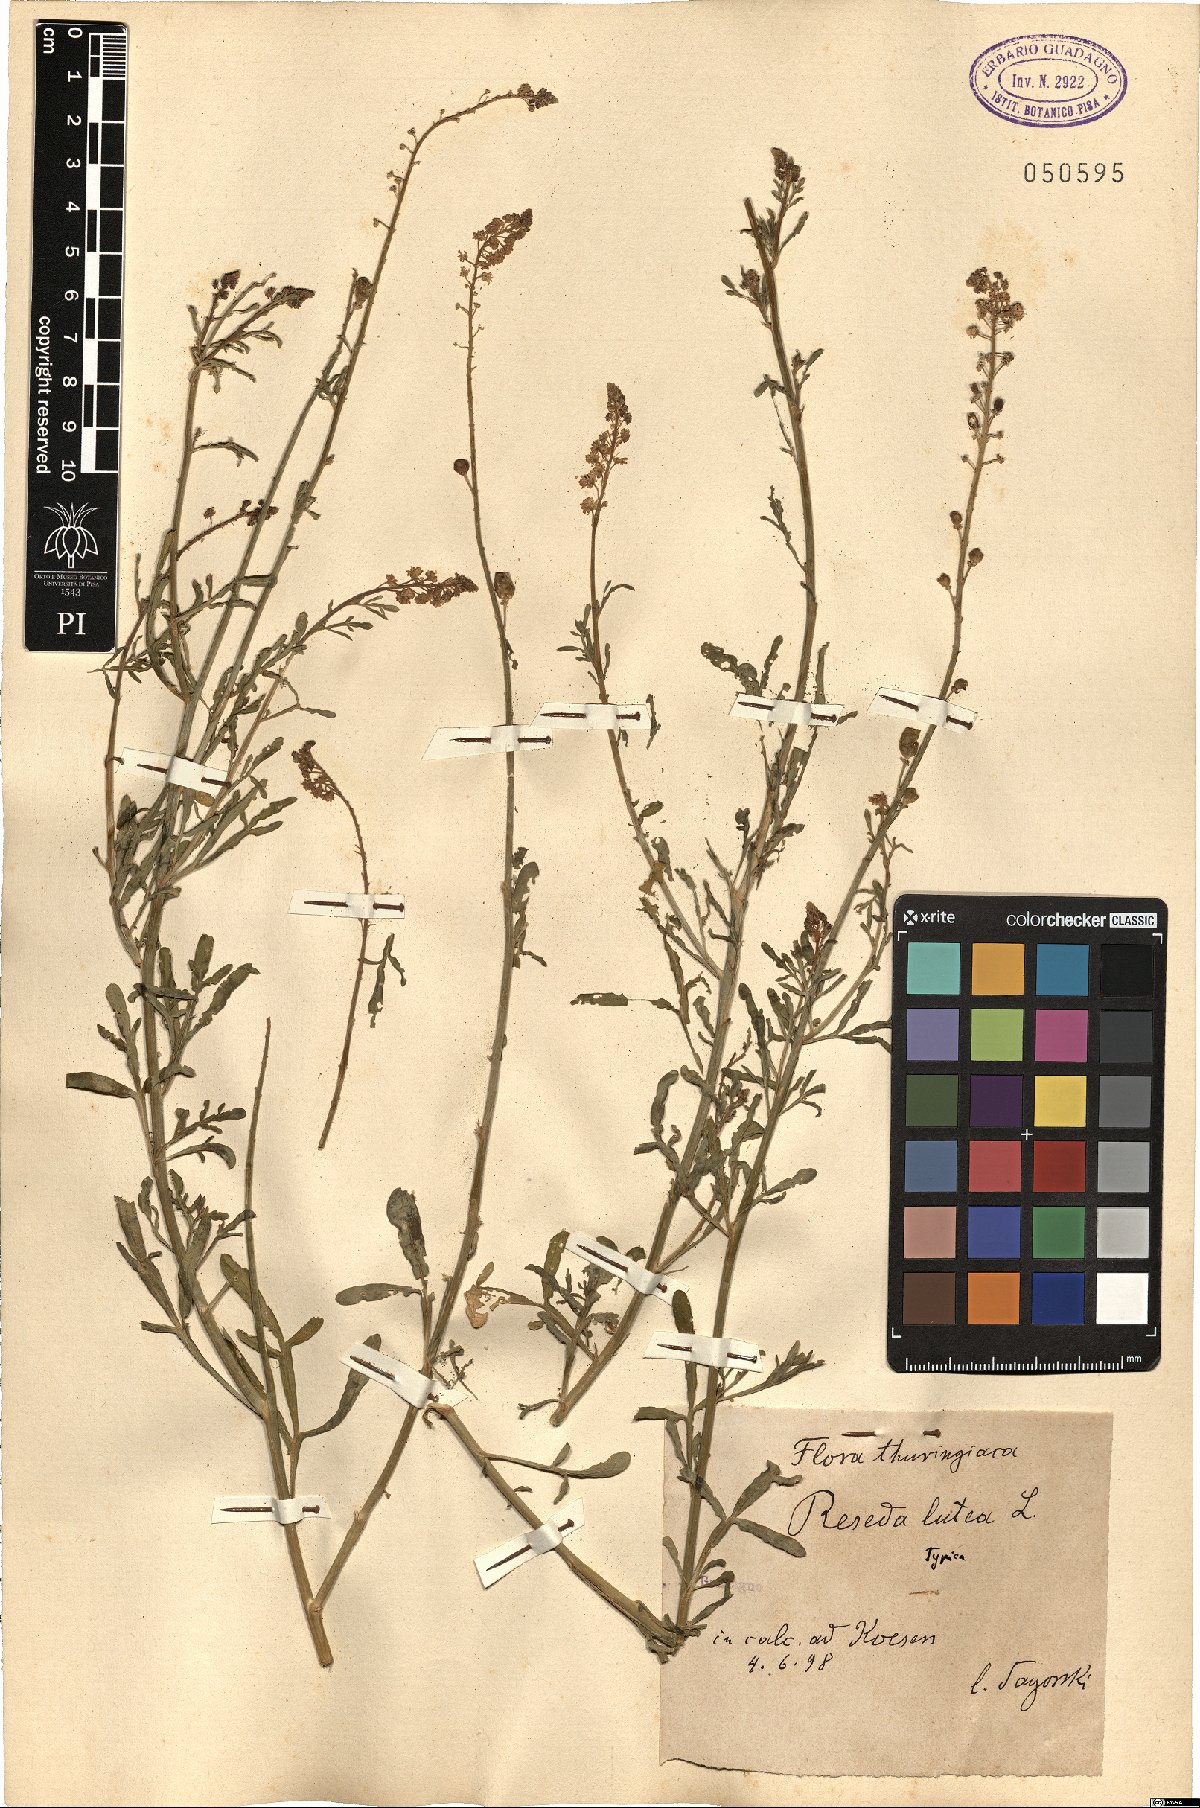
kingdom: Plantae
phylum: Tracheophyta
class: Magnoliopsida
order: Brassicales
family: Resedaceae
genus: Reseda
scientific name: Reseda lutea
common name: Wild mignonette
